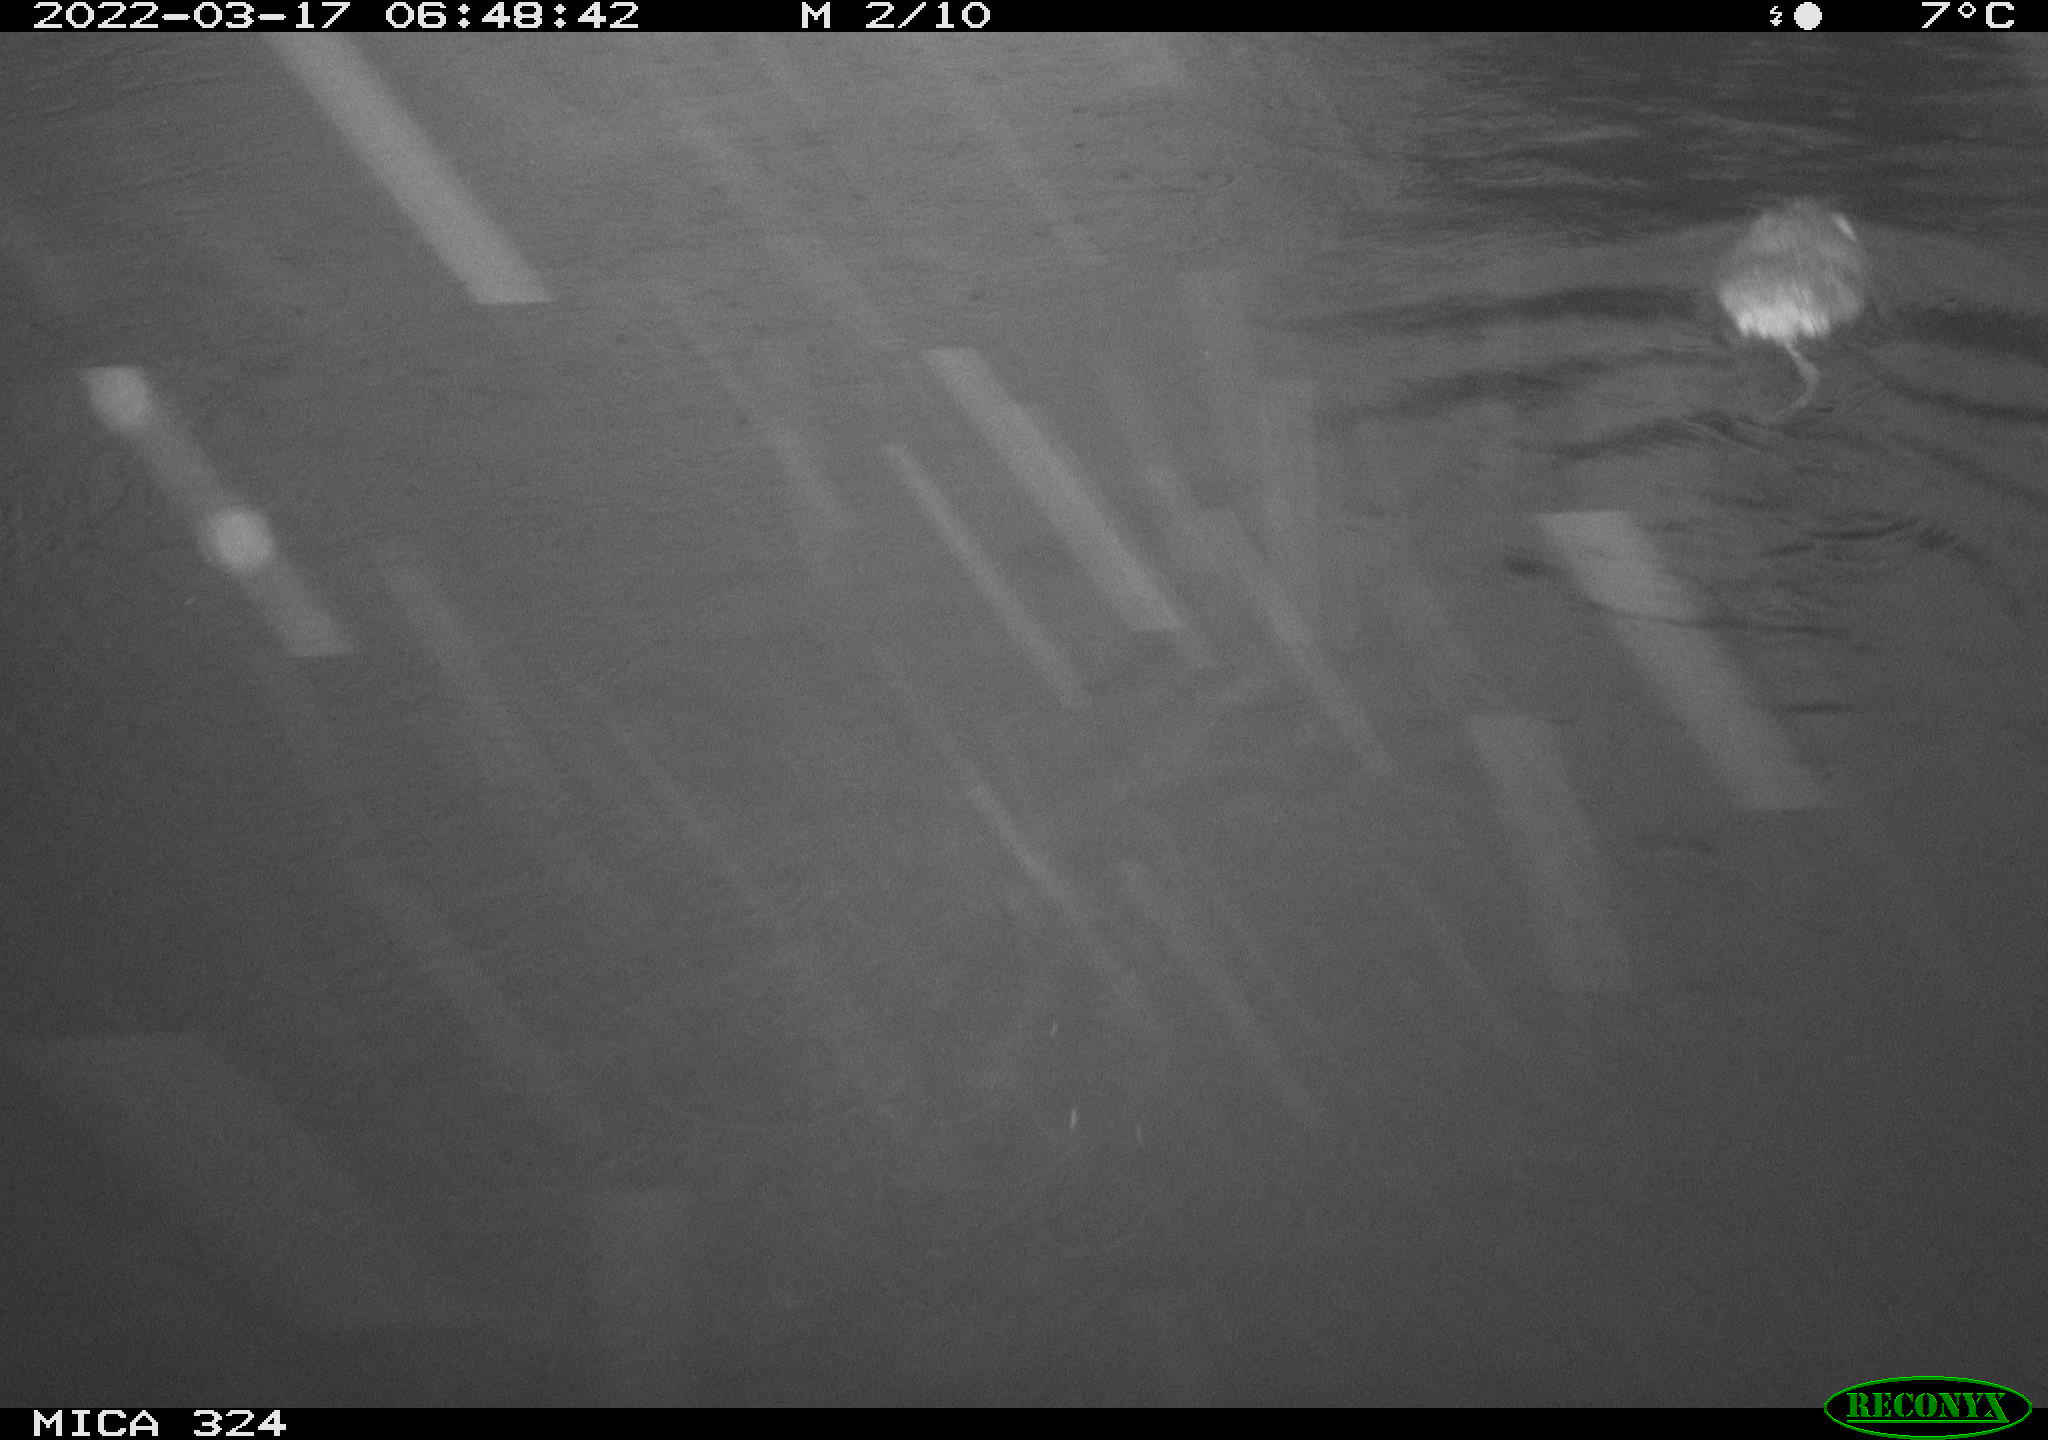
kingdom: Animalia
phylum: Chordata
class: Mammalia
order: Rodentia
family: Cricetidae
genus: Ondatra
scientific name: Ondatra zibethicus
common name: Muskrat
